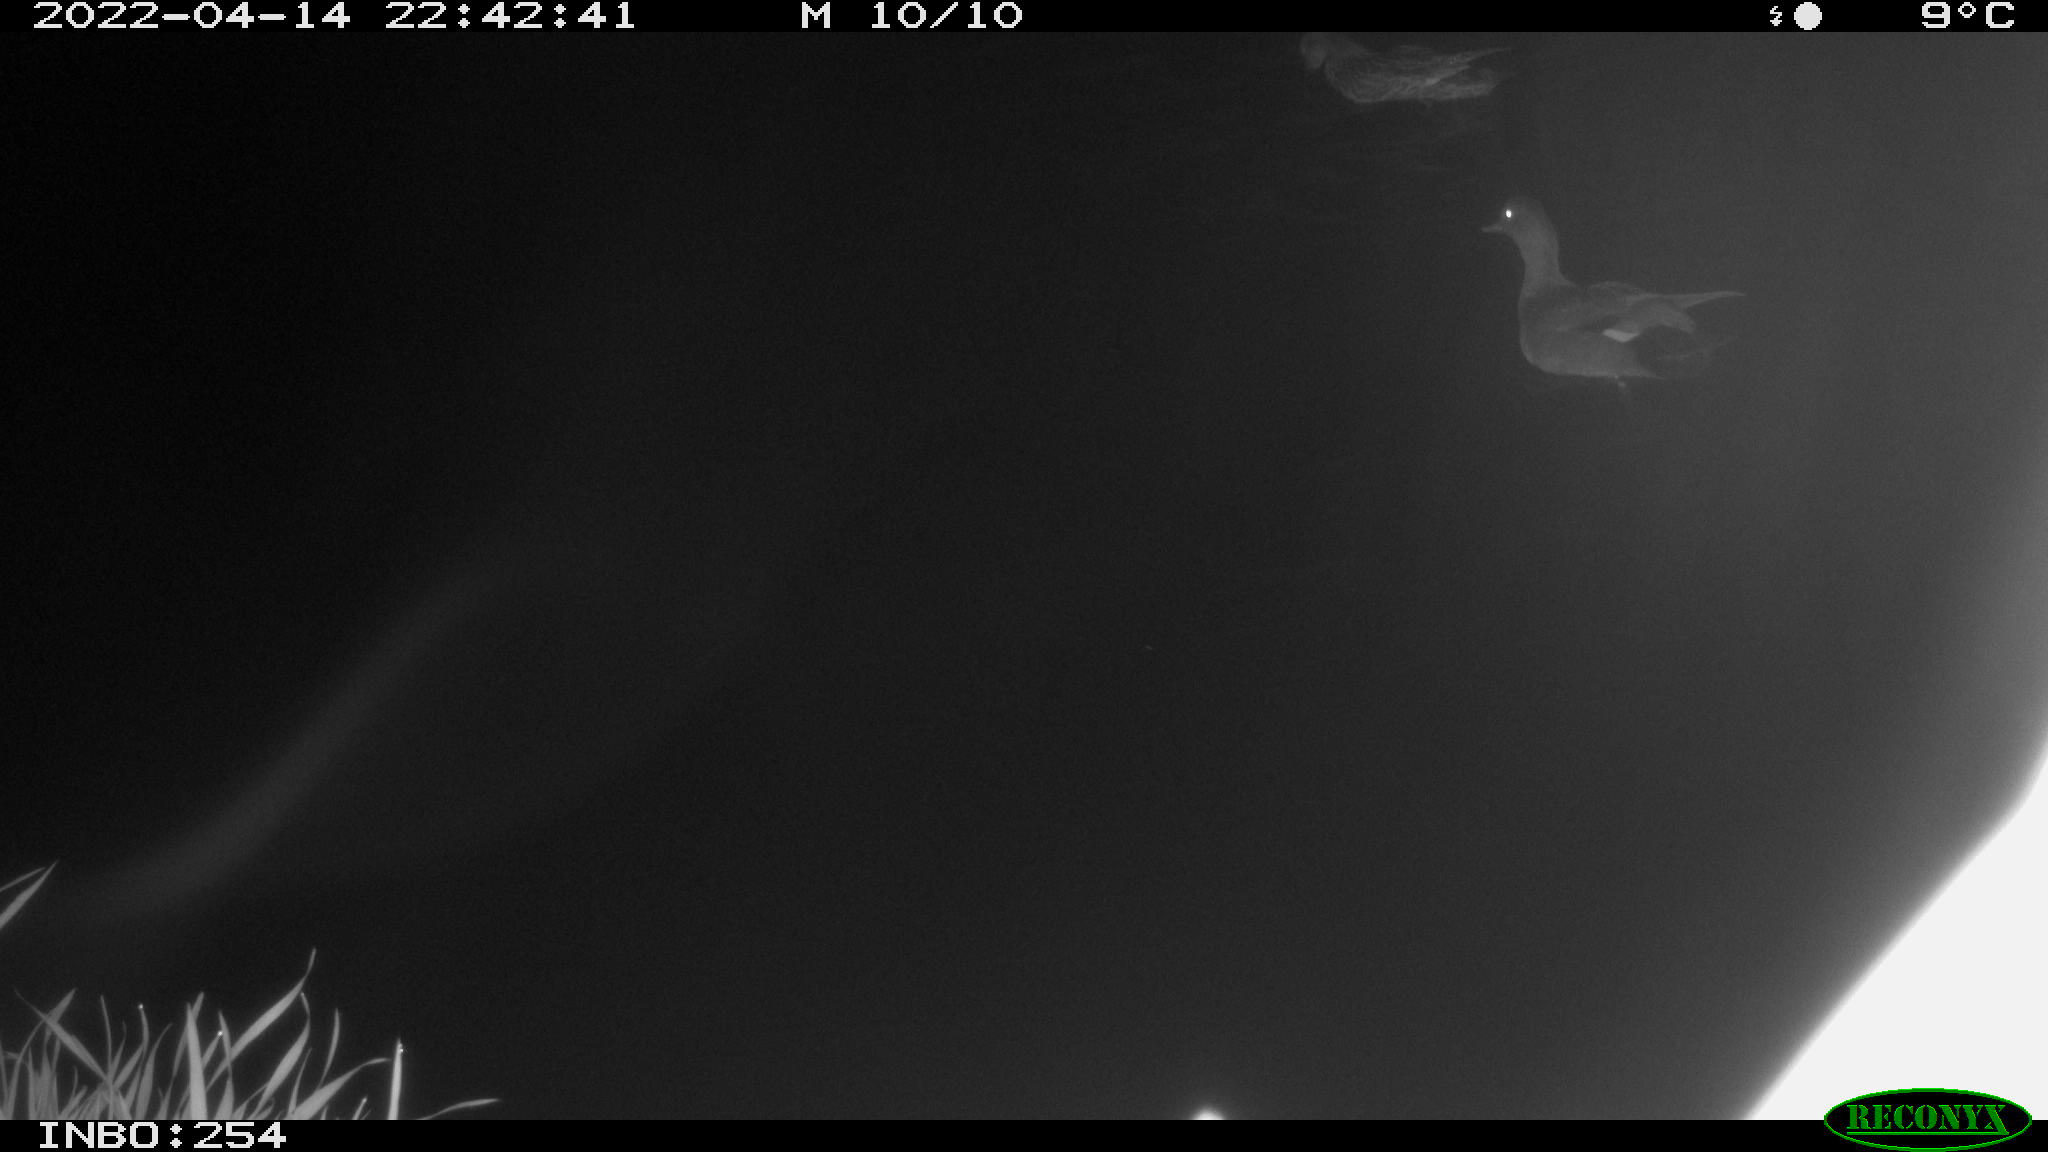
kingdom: Animalia
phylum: Chordata
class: Aves
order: Anseriformes
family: Anatidae
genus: Mareca
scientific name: Mareca strepera
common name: Gadwall
